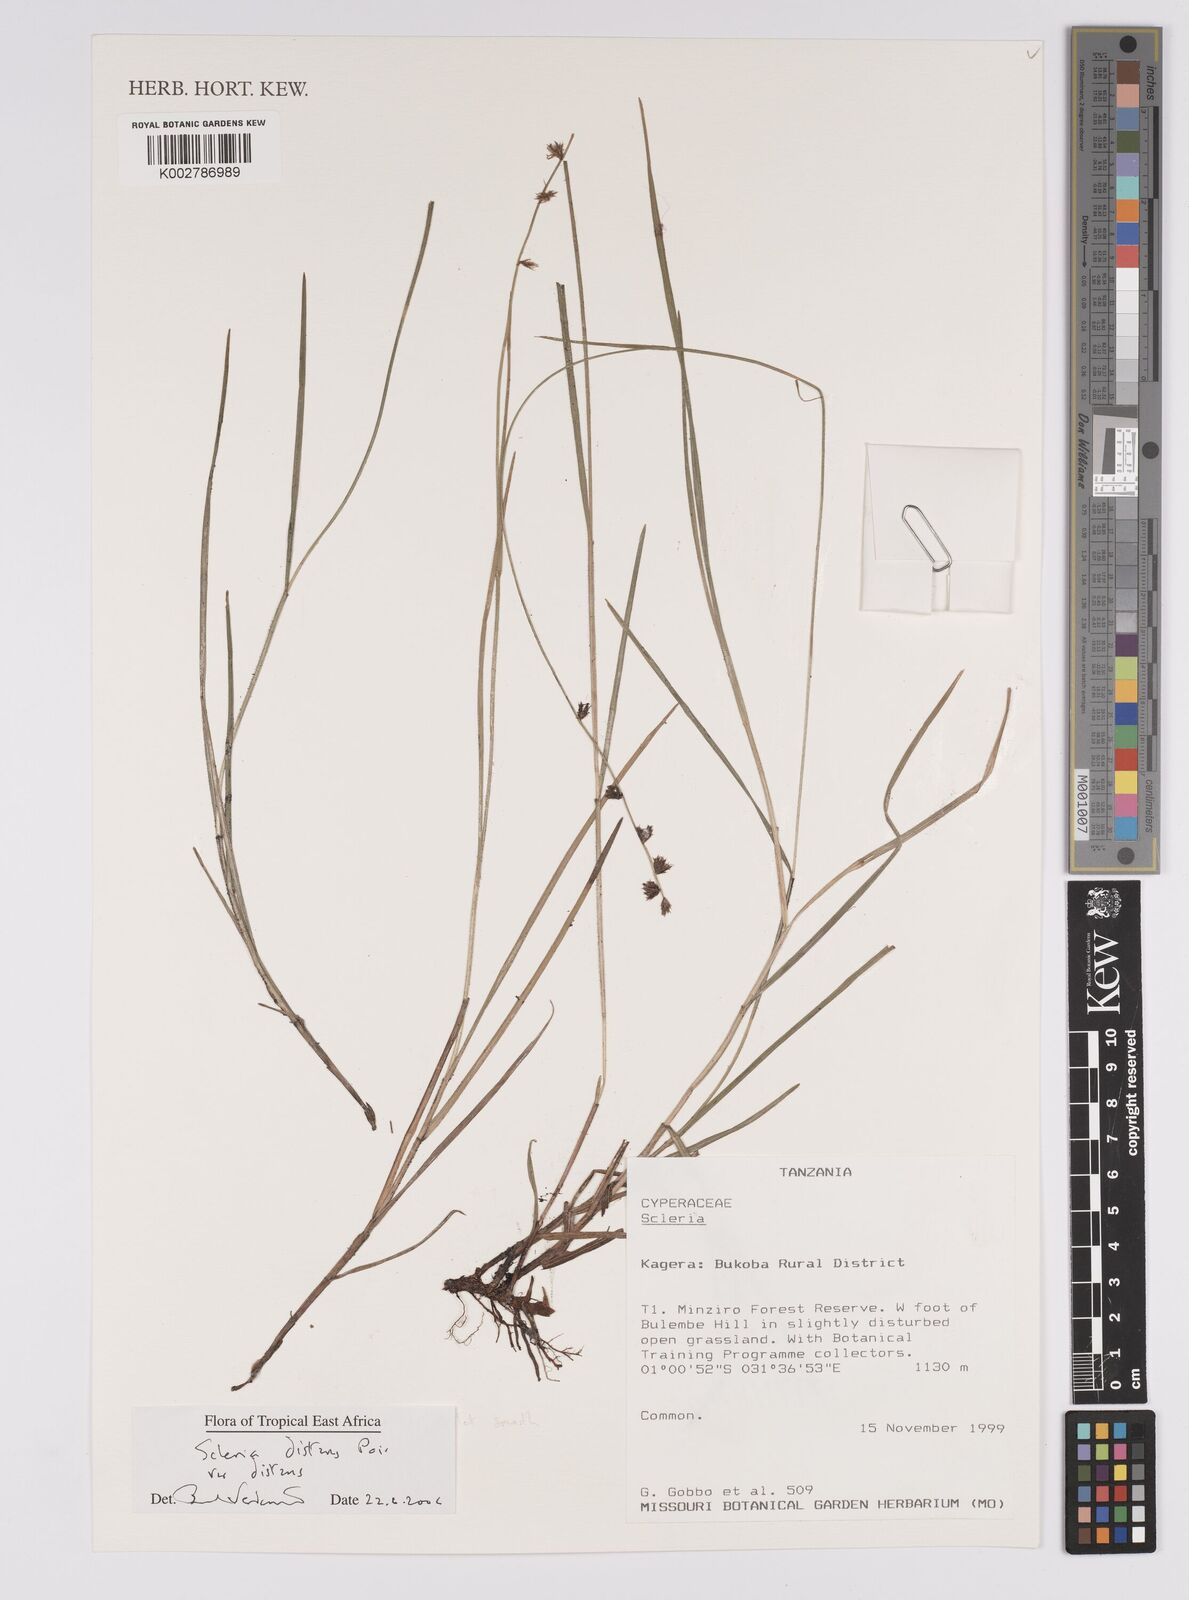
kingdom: Plantae
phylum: Tracheophyta
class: Liliopsida
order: Poales
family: Cyperaceae
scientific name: Cyperaceae
